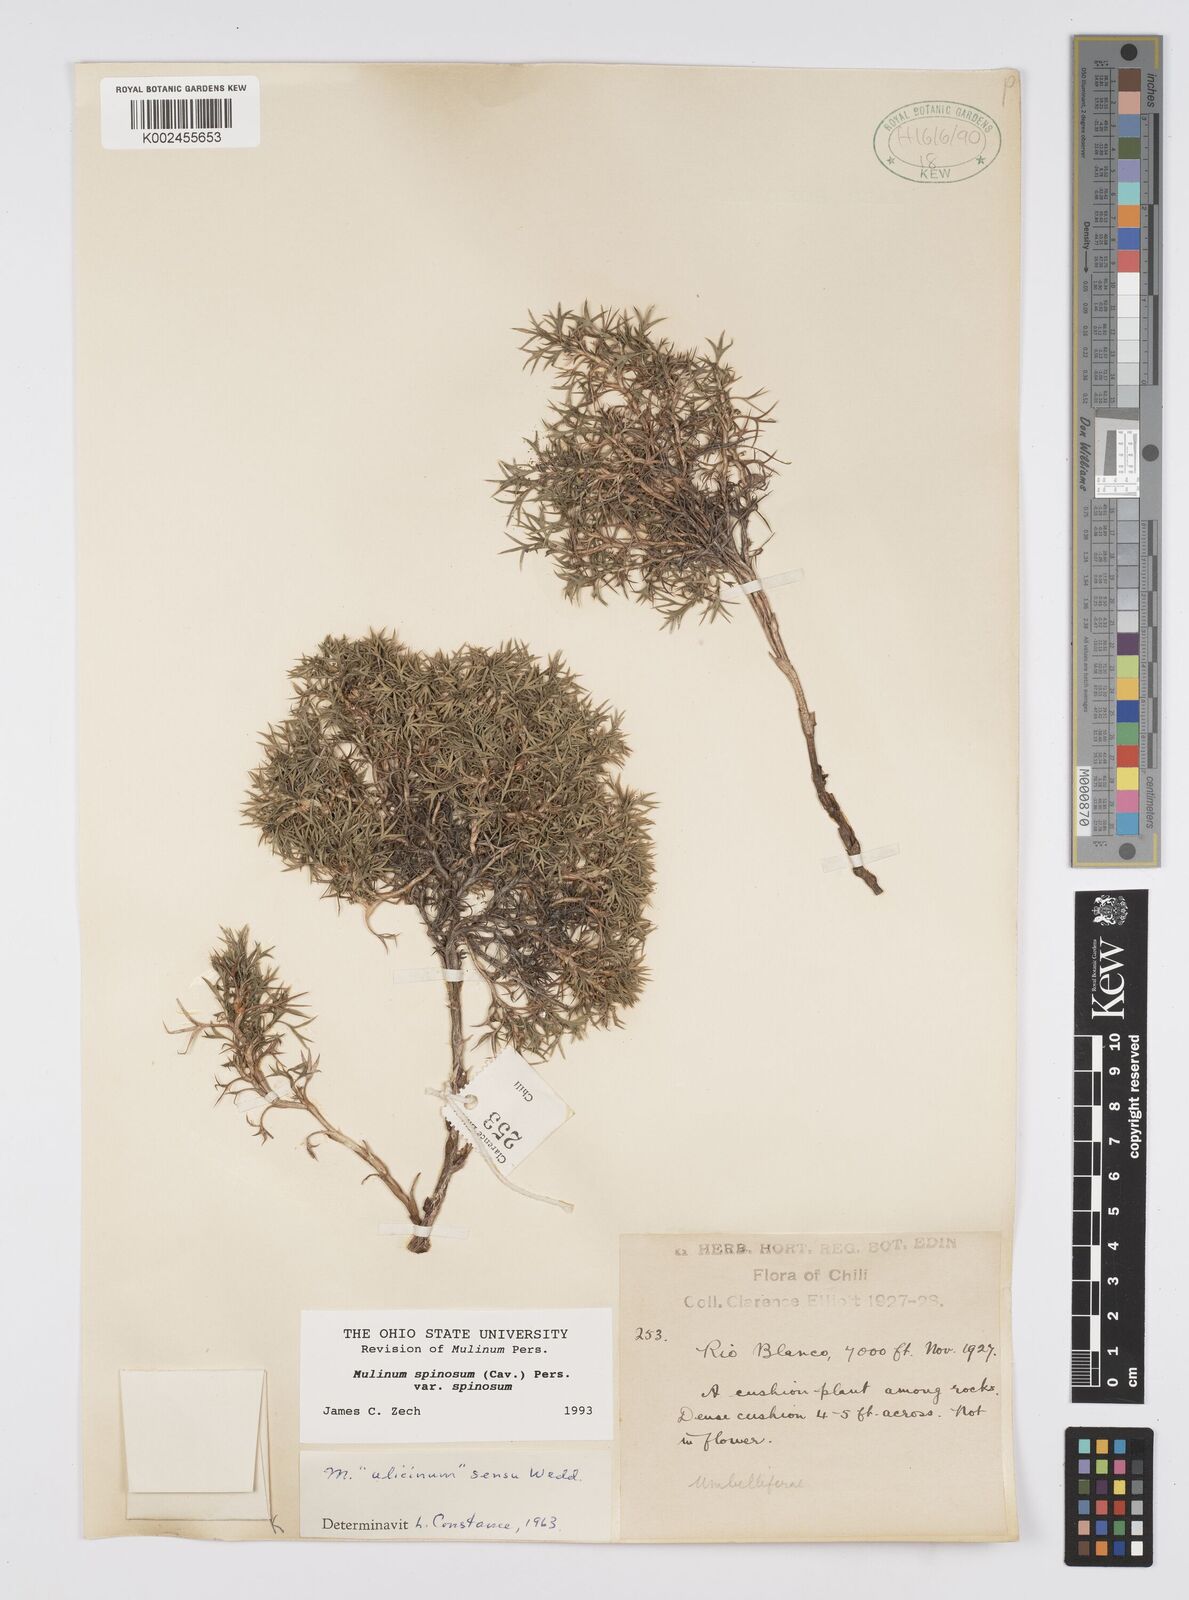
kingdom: Plantae
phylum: Tracheophyta
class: Magnoliopsida
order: Apiales
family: Apiaceae
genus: Azorella
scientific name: Azorella prolifera
